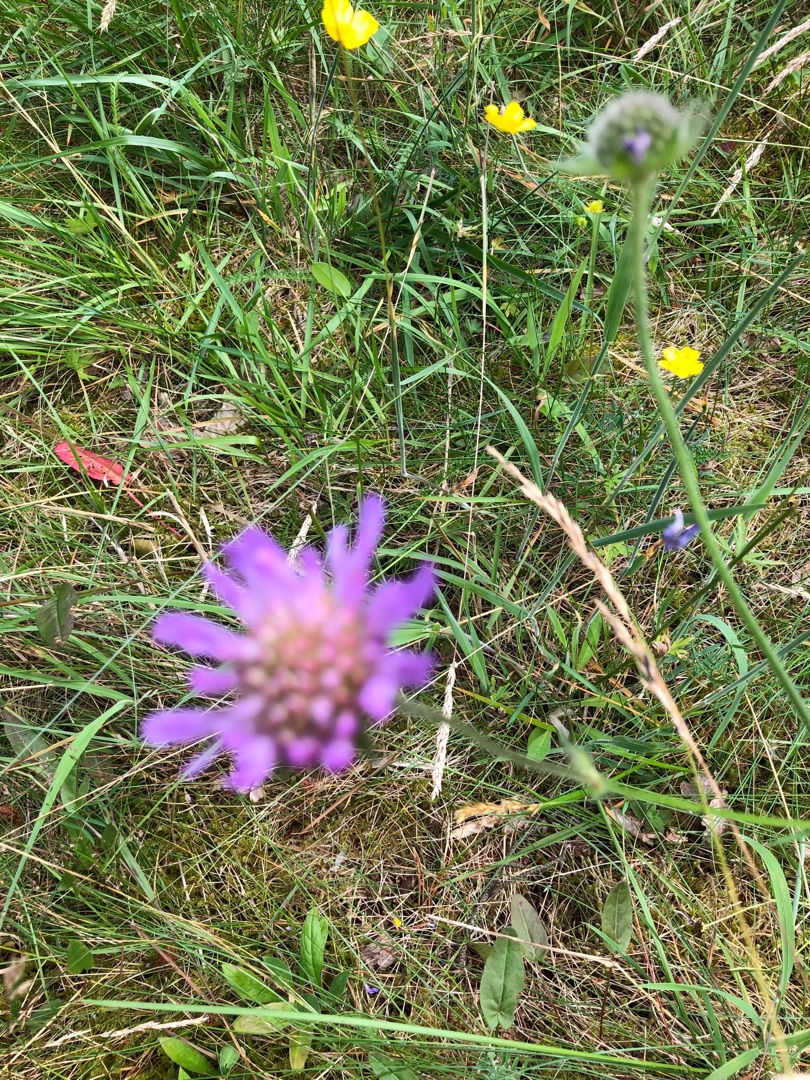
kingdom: Plantae
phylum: Tracheophyta
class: Magnoliopsida
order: Dipsacales
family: Caprifoliaceae
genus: Knautia
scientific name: Knautia arvensis
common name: Blåhat
